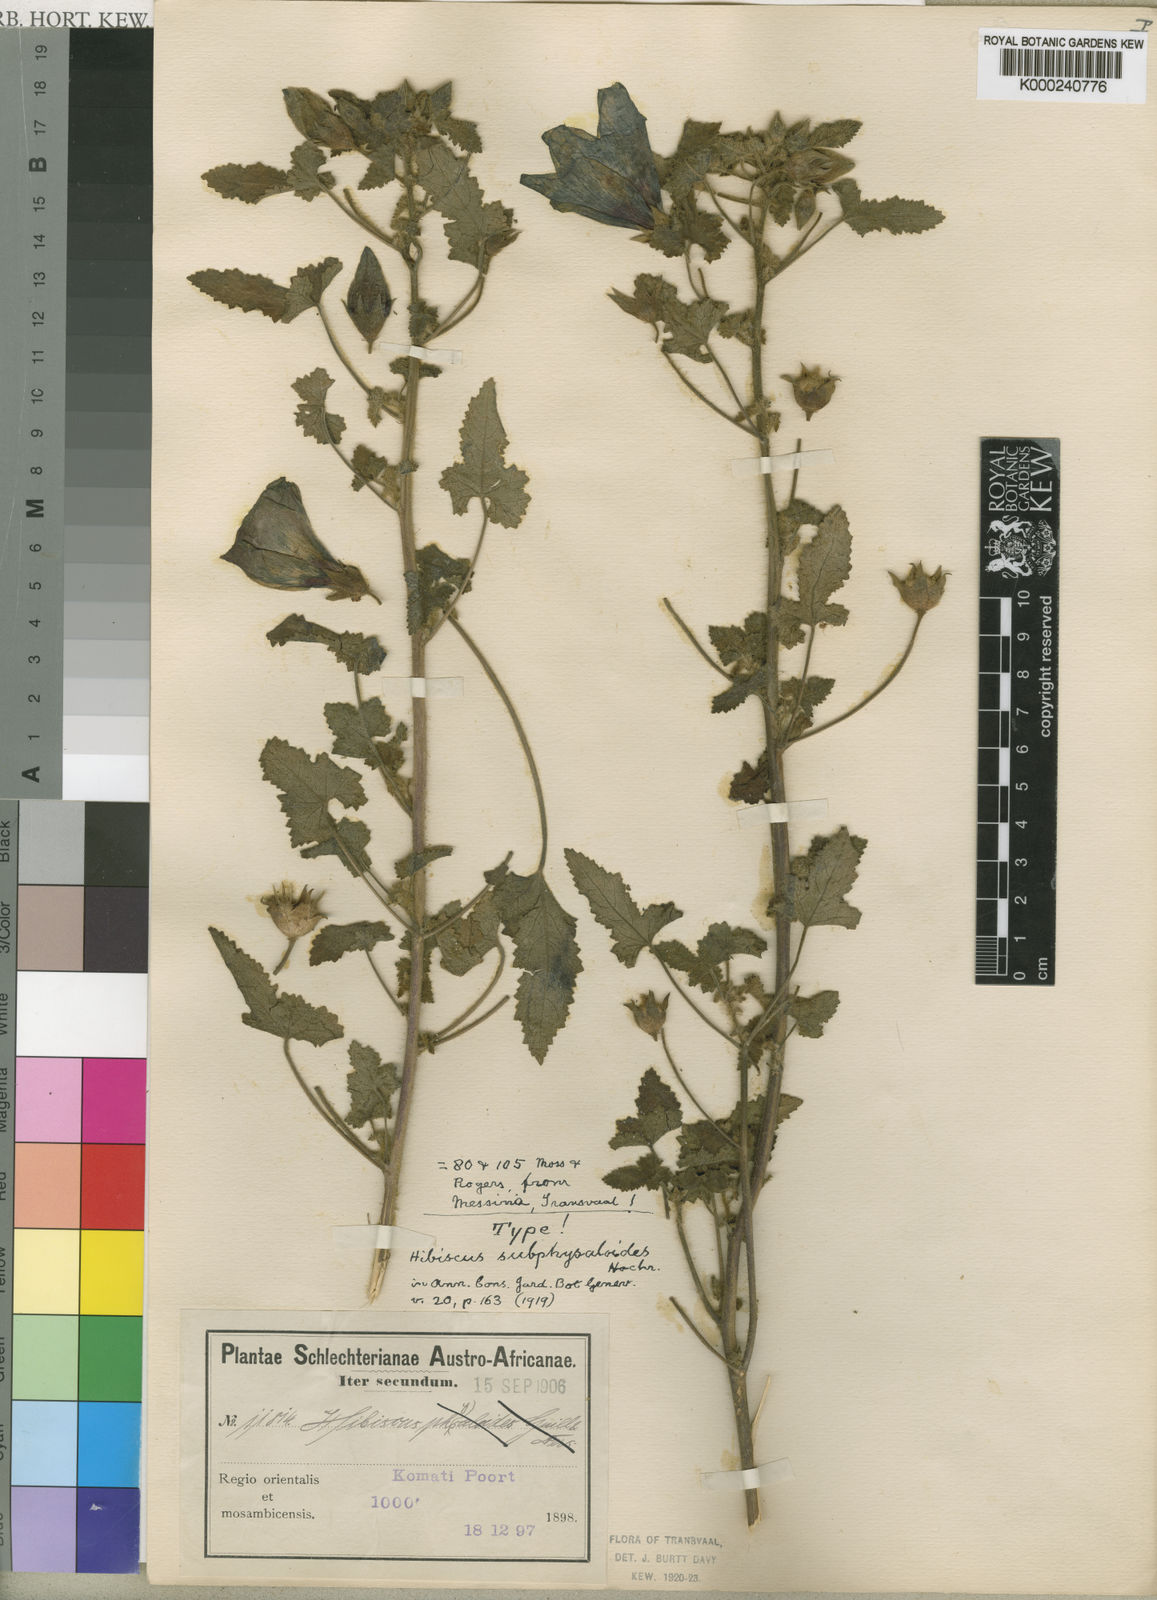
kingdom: Plantae
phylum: Tracheophyta
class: Magnoliopsida
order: Malvales
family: Malvaceae
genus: Hibiscus
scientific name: Hibiscus
